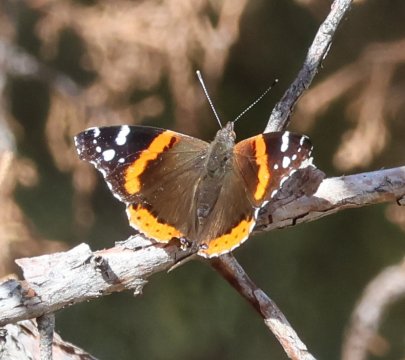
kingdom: Animalia
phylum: Arthropoda
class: Insecta
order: Lepidoptera
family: Nymphalidae
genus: Vanessa
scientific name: Vanessa atalanta
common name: Red Admiral
